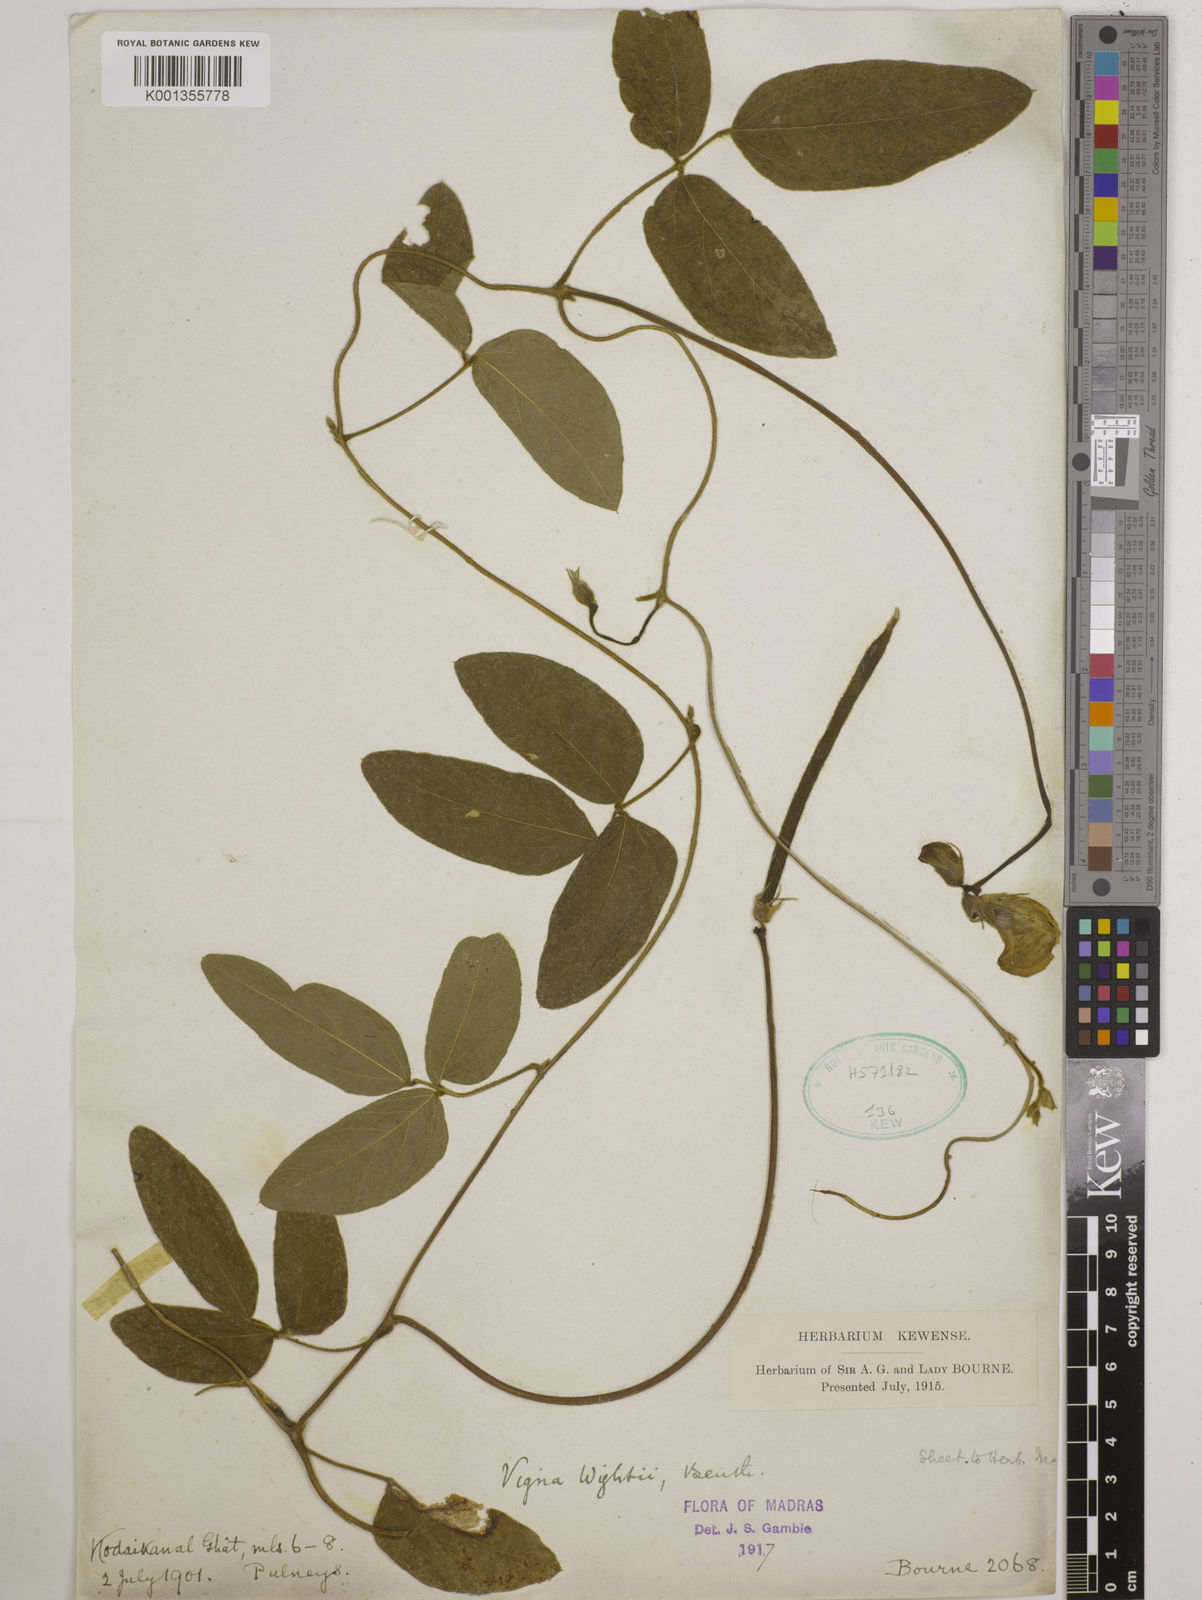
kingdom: Plantae
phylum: Tracheophyta
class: Magnoliopsida
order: Fabales
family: Fabaceae
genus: Vigna
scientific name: Vigna vexillata
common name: Zombi pea
